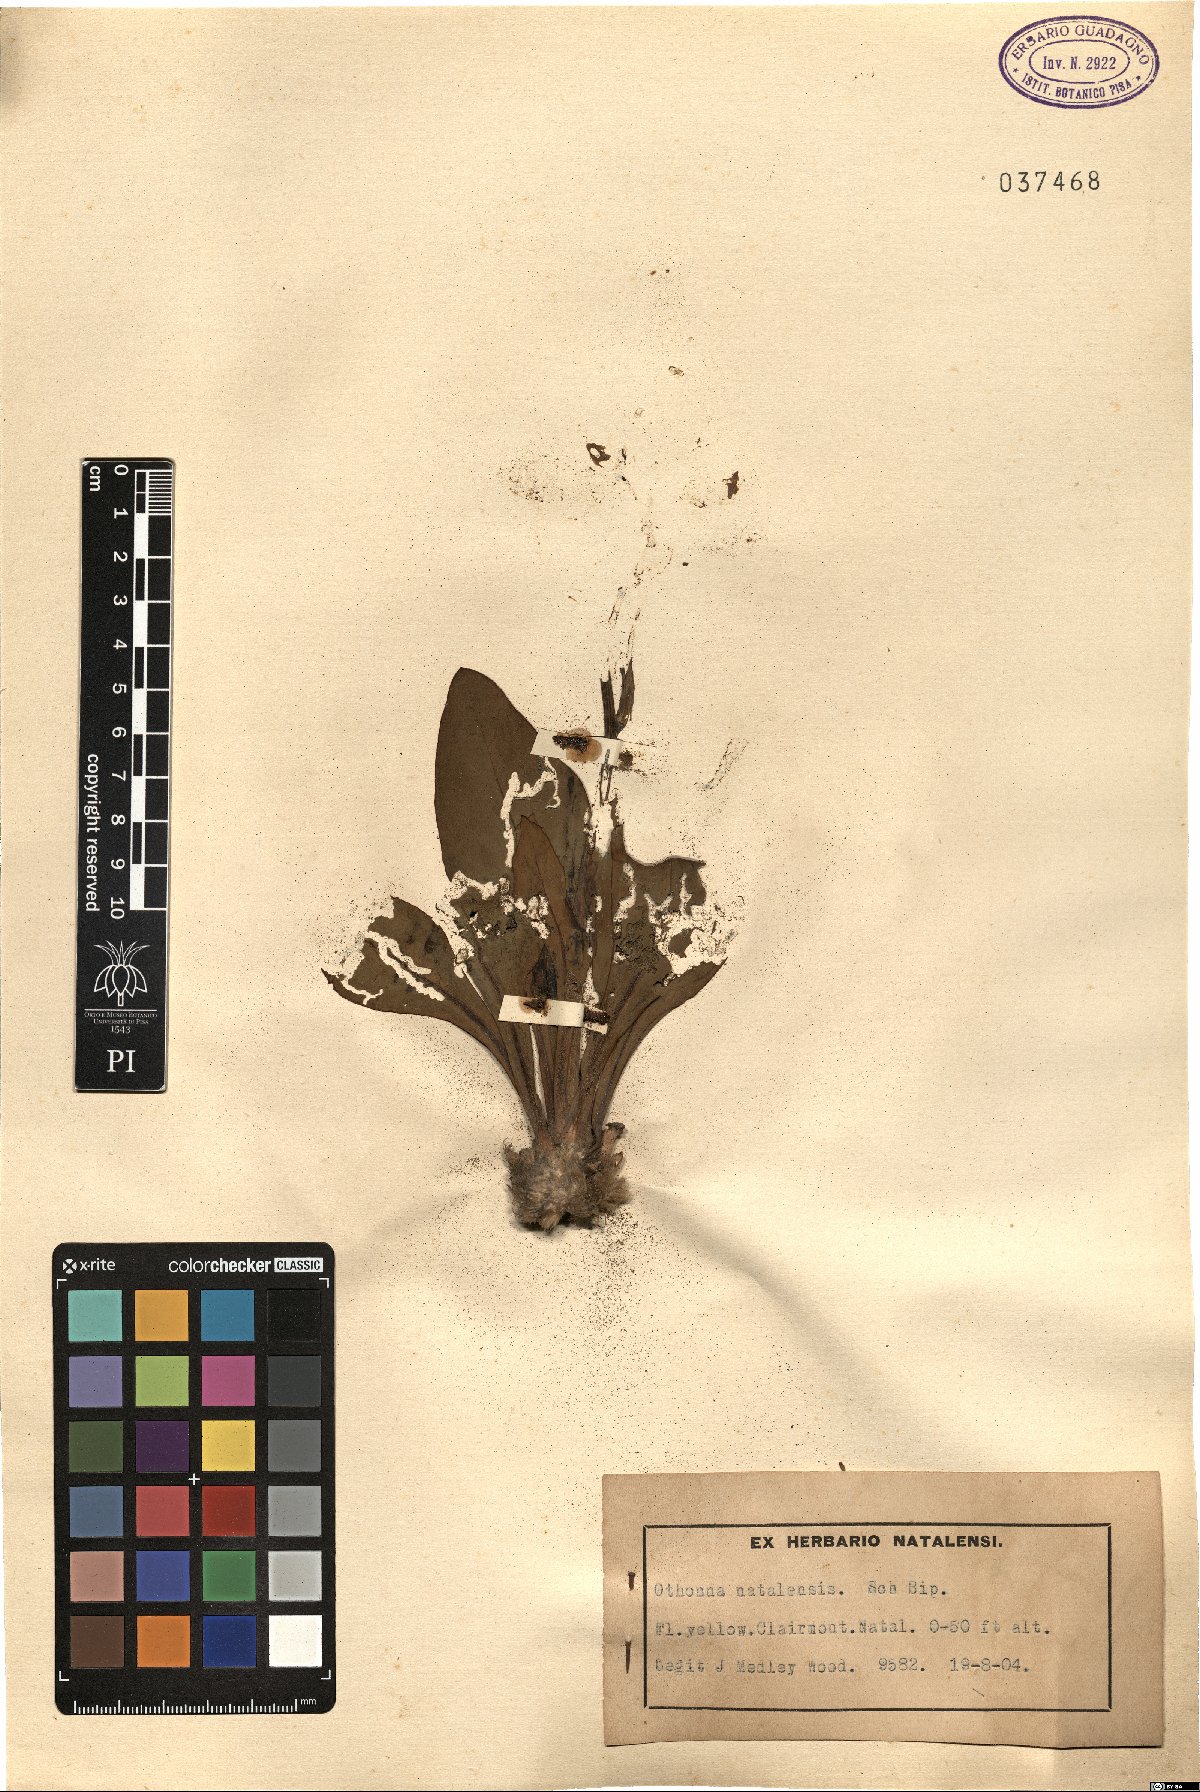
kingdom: Plantae
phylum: Tracheophyta
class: Magnoliopsida
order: Asterales
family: Asteraceae
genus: Othonna
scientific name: Othonna natalensis
